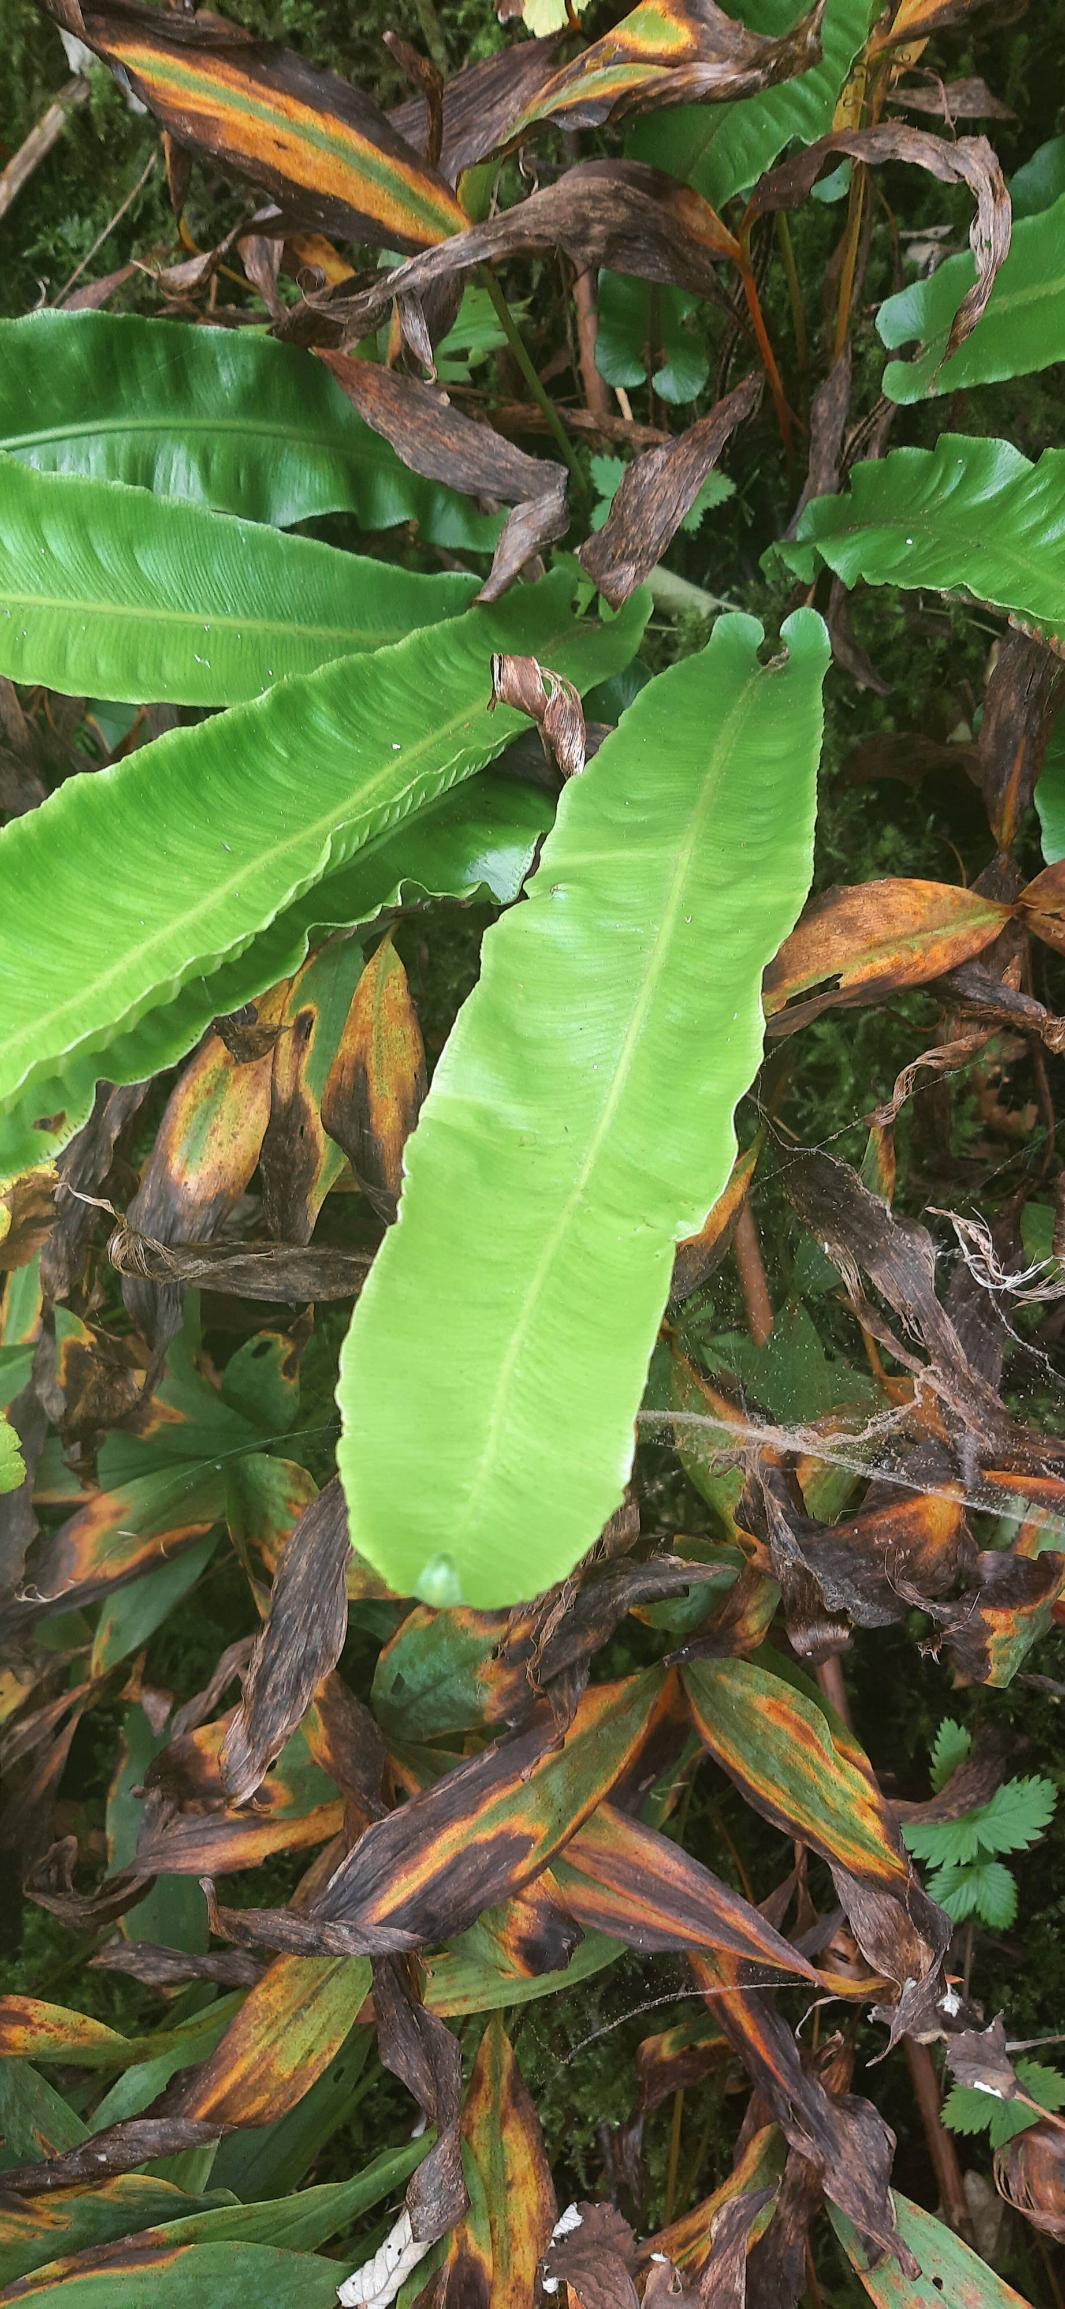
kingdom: Plantae
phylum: Tracheophyta
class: Polypodiopsida
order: Polypodiales
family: Aspleniaceae
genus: Asplenium
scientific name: Asplenium scolopendrium
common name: Hjortetunge
